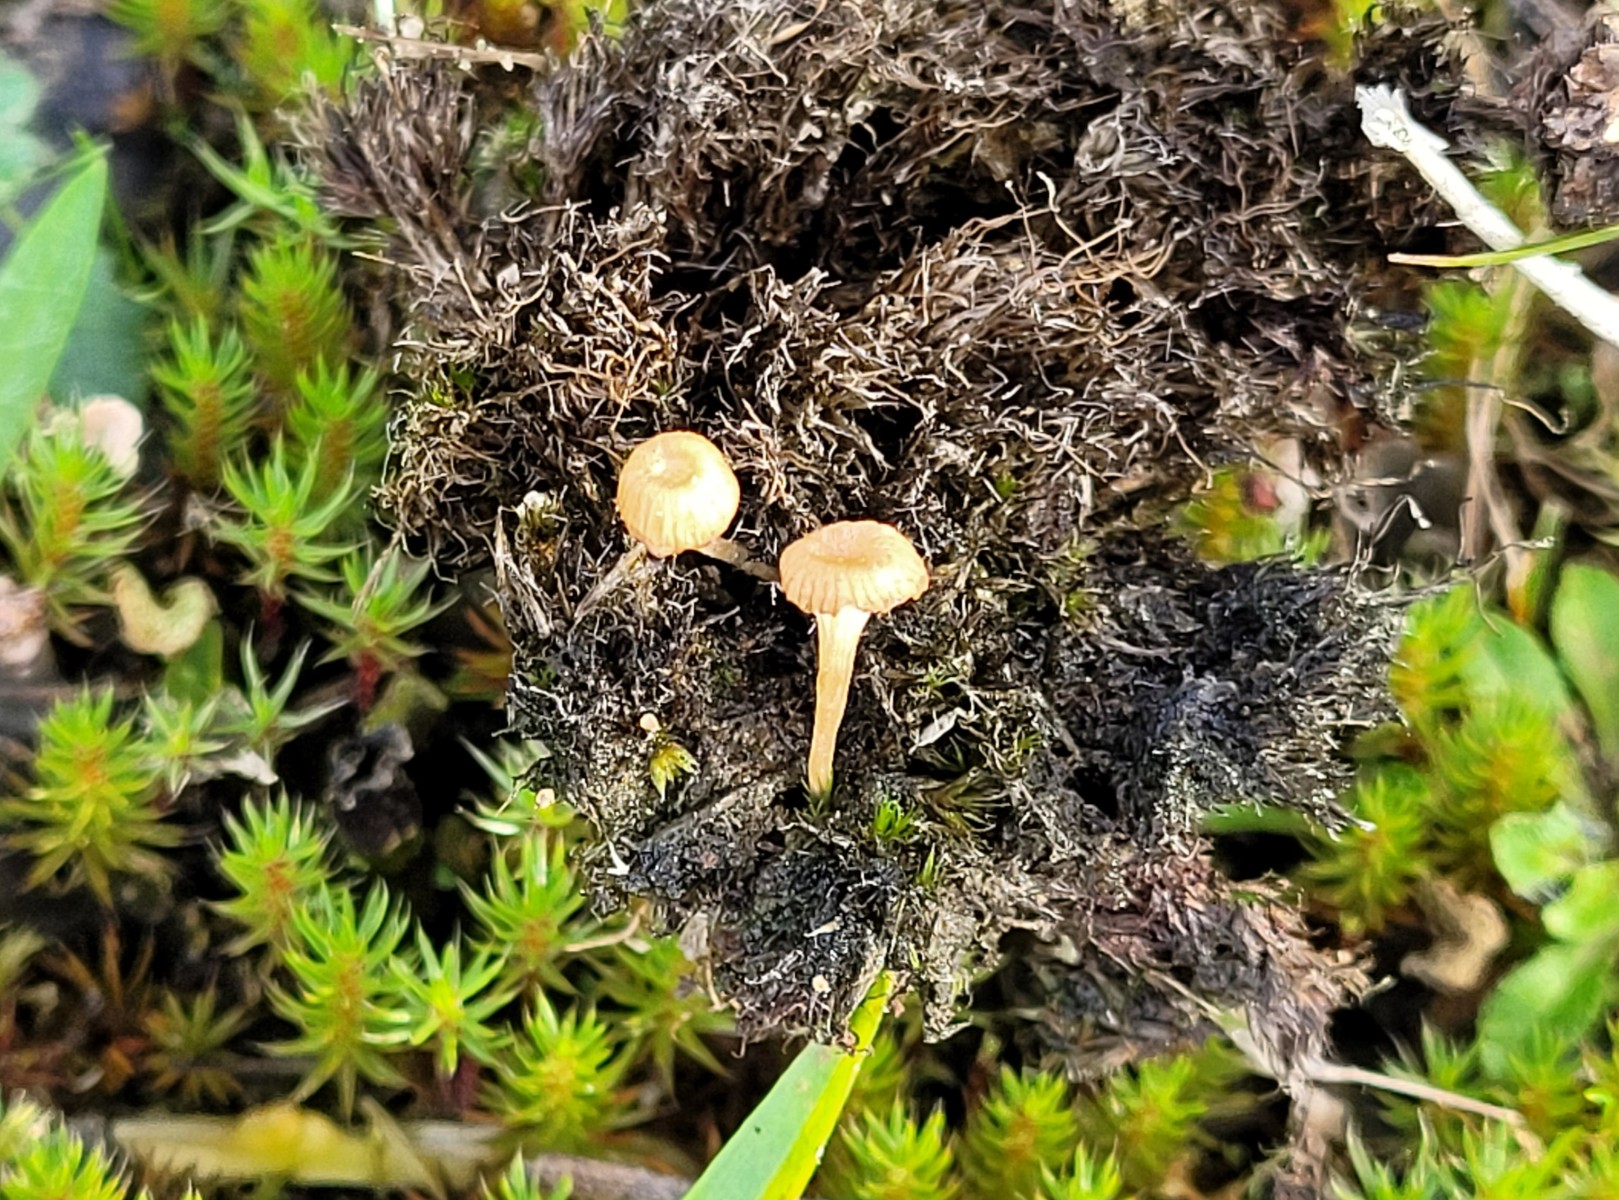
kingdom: Fungi
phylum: Basidiomycota
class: Agaricomycetes
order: Agaricales
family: Hygrophoraceae
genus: Lichenomphalia
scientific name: Lichenomphalia umbellifera
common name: tørve-lavhat
